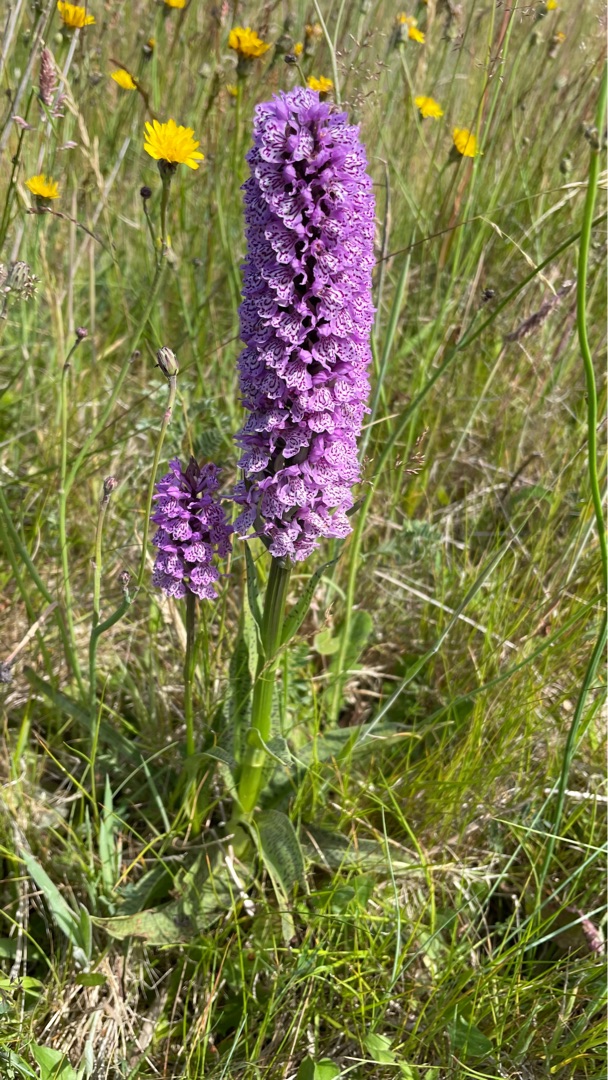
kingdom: Plantae
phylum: Tracheophyta
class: Liliopsida
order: Asparagales
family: Orchidaceae
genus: Dactylorhiza
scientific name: Dactylorhiza maculata
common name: Plettet gøgeurt
